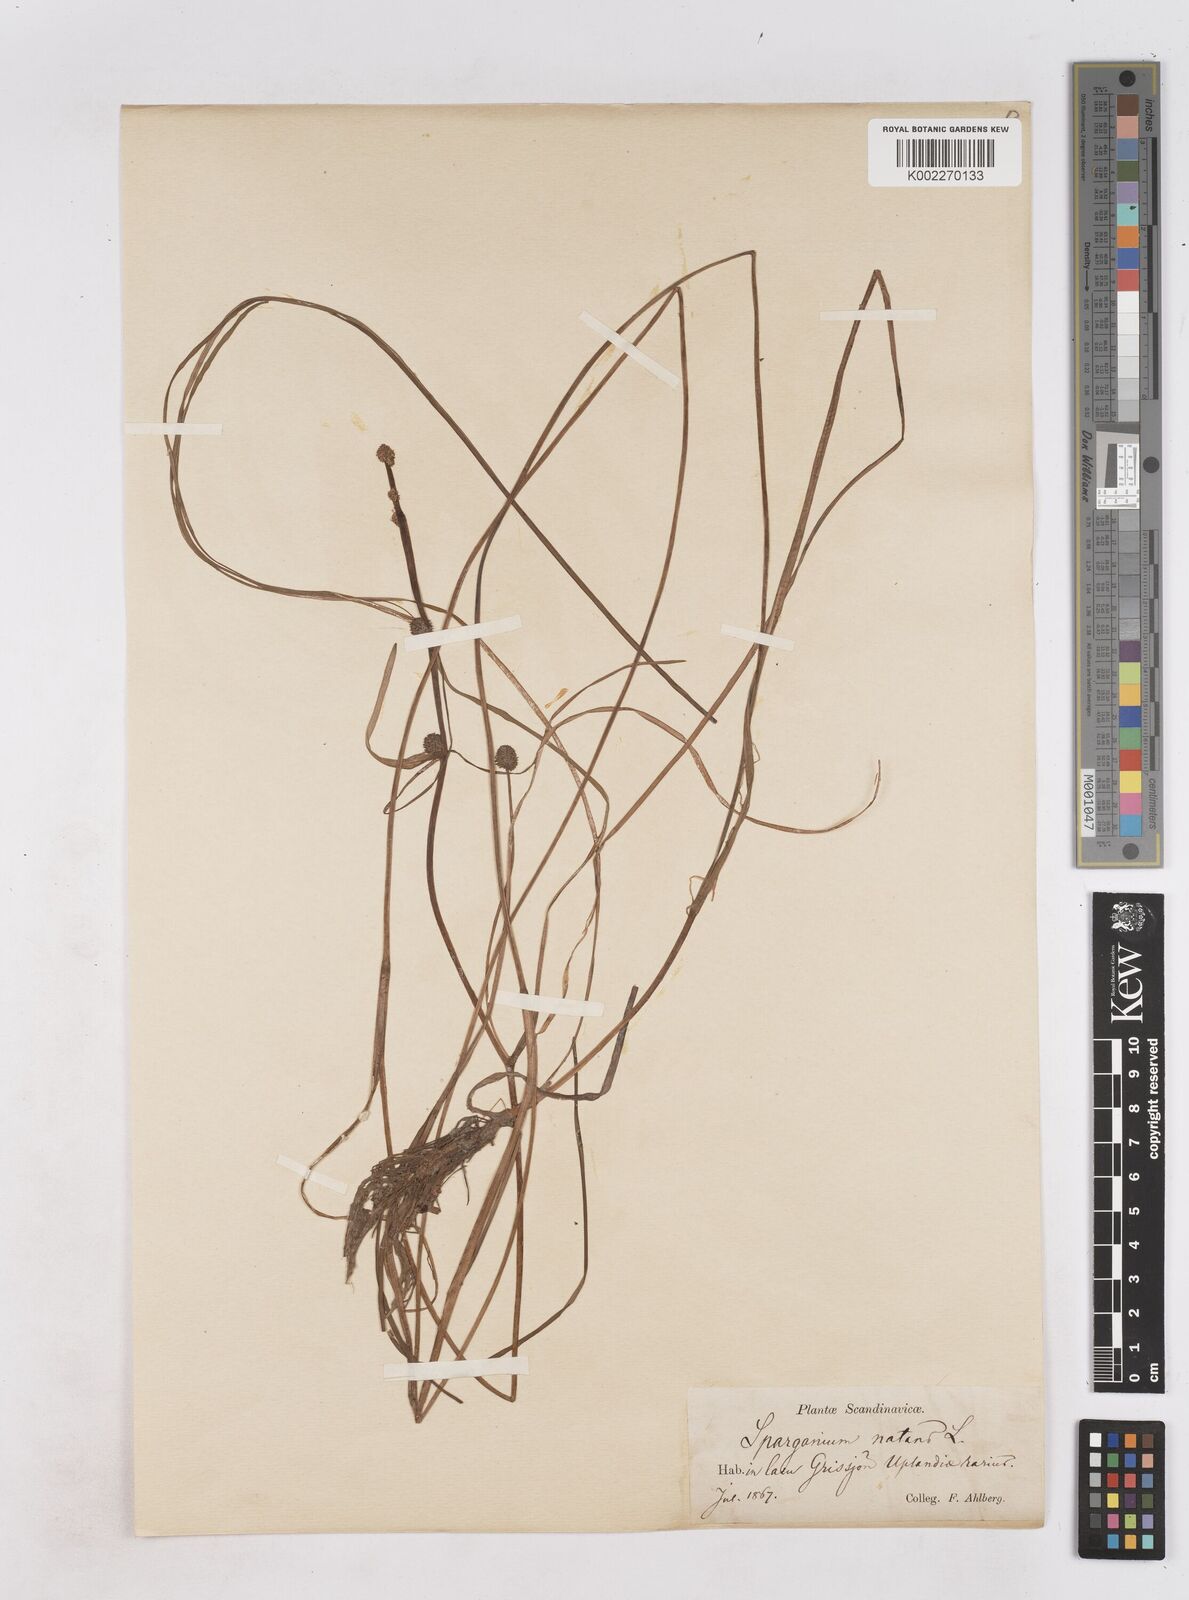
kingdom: Plantae
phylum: Tracheophyta
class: Liliopsida
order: Poales
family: Typhaceae
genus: Sparganium
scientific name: Sparganium natans
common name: Least bur-reed
